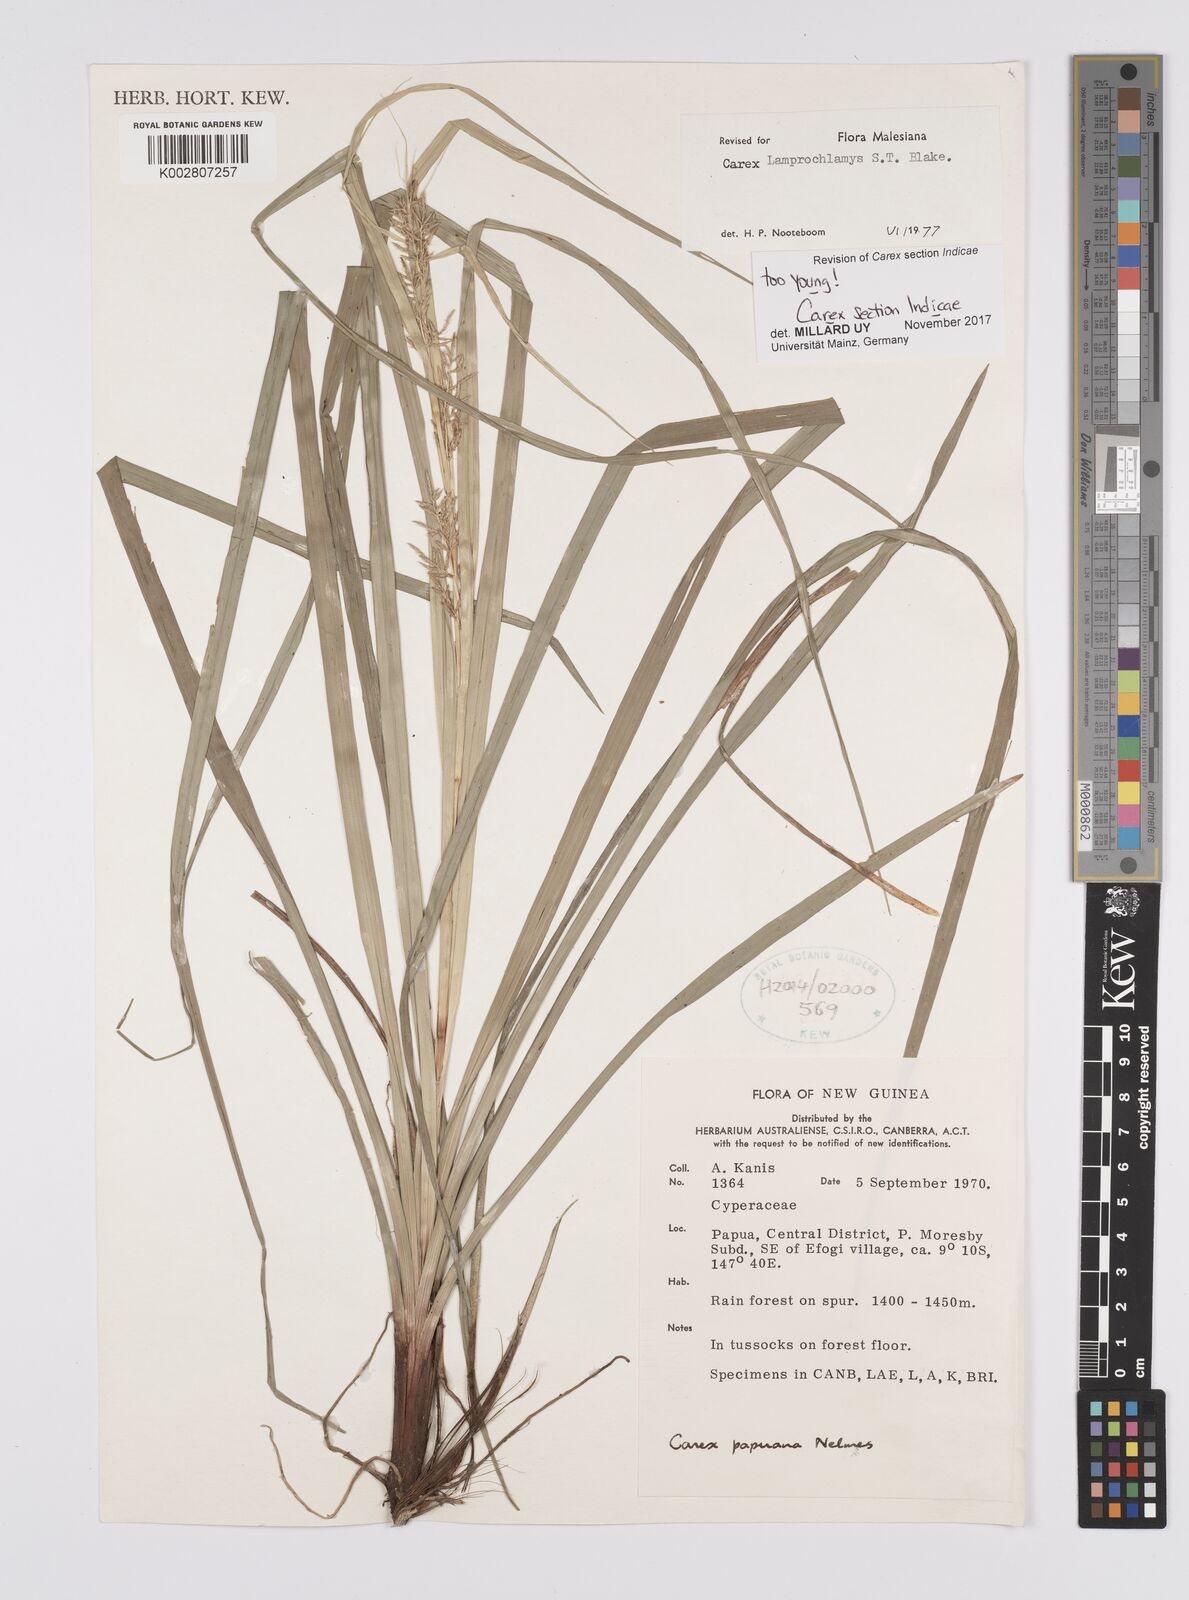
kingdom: Plantae
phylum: Tracheophyta
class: Liliopsida
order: Poales
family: Cyperaceae
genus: Carex
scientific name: Carex
